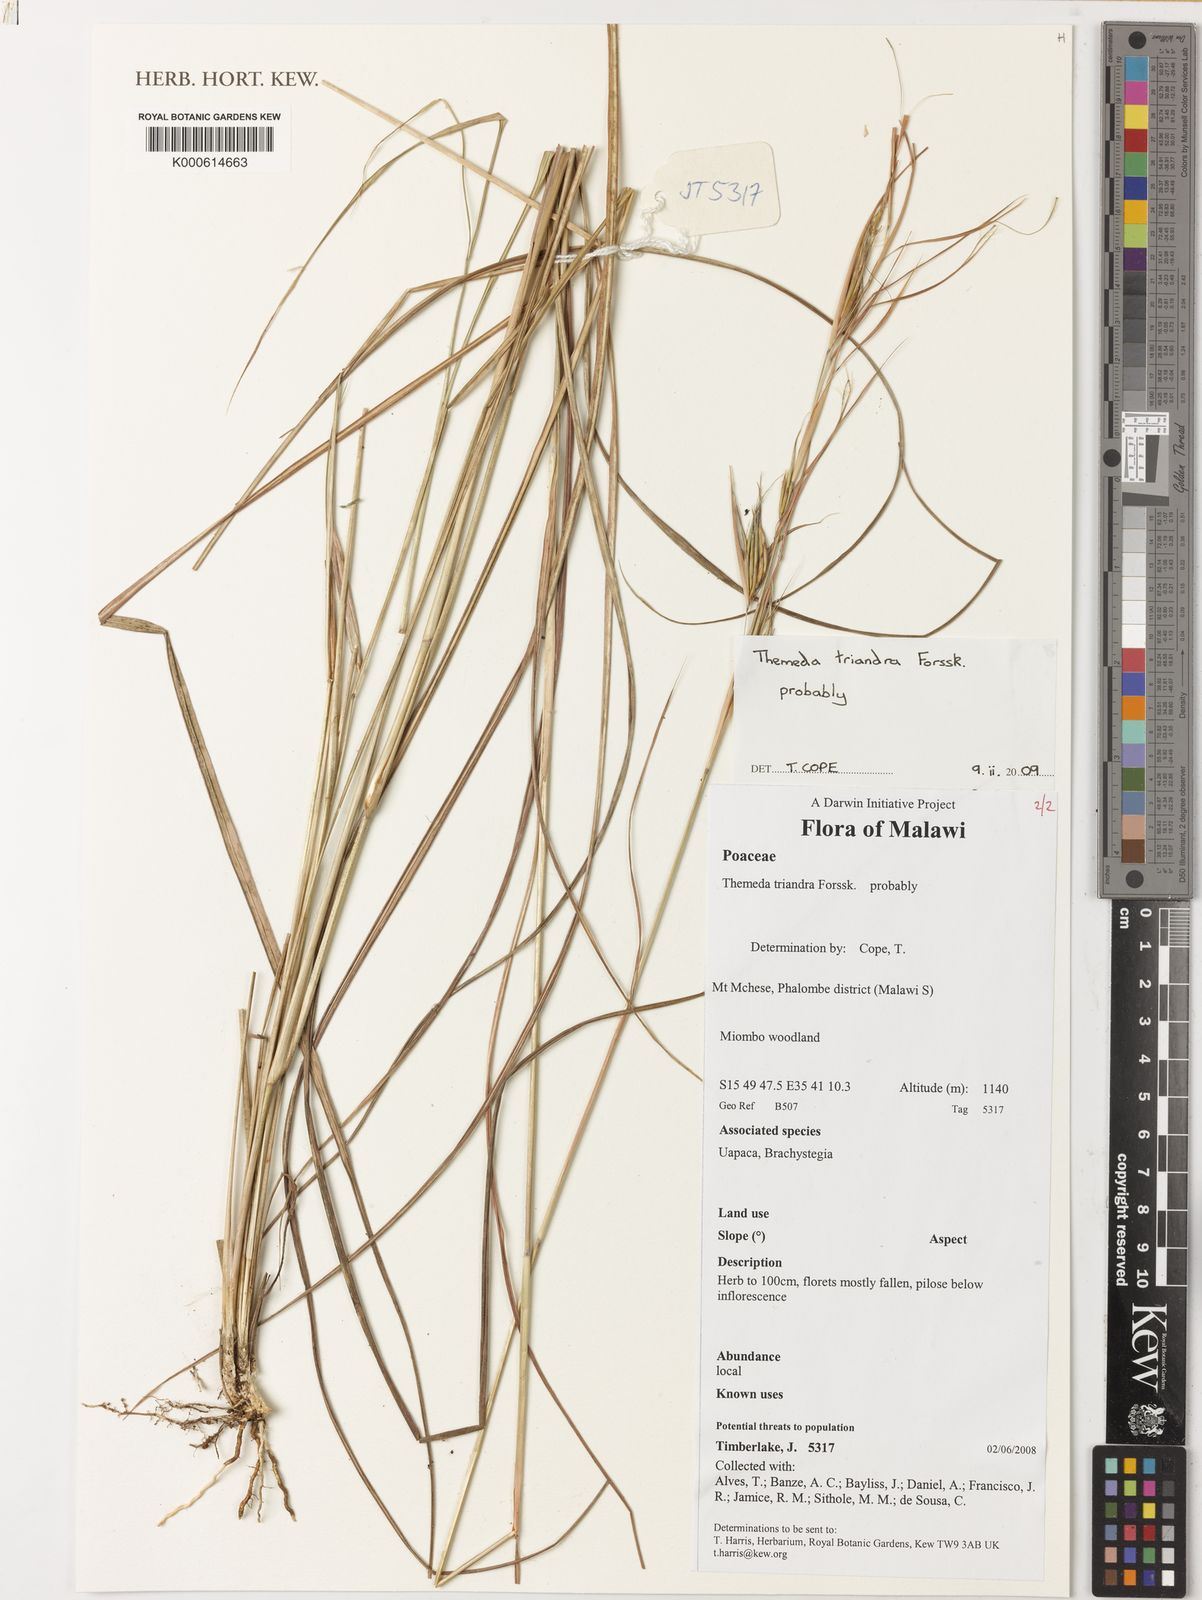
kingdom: Plantae
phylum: Tracheophyta
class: Liliopsida
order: Poales
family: Poaceae
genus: Themeda
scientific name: Themeda triandra
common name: Kangaroo grass
